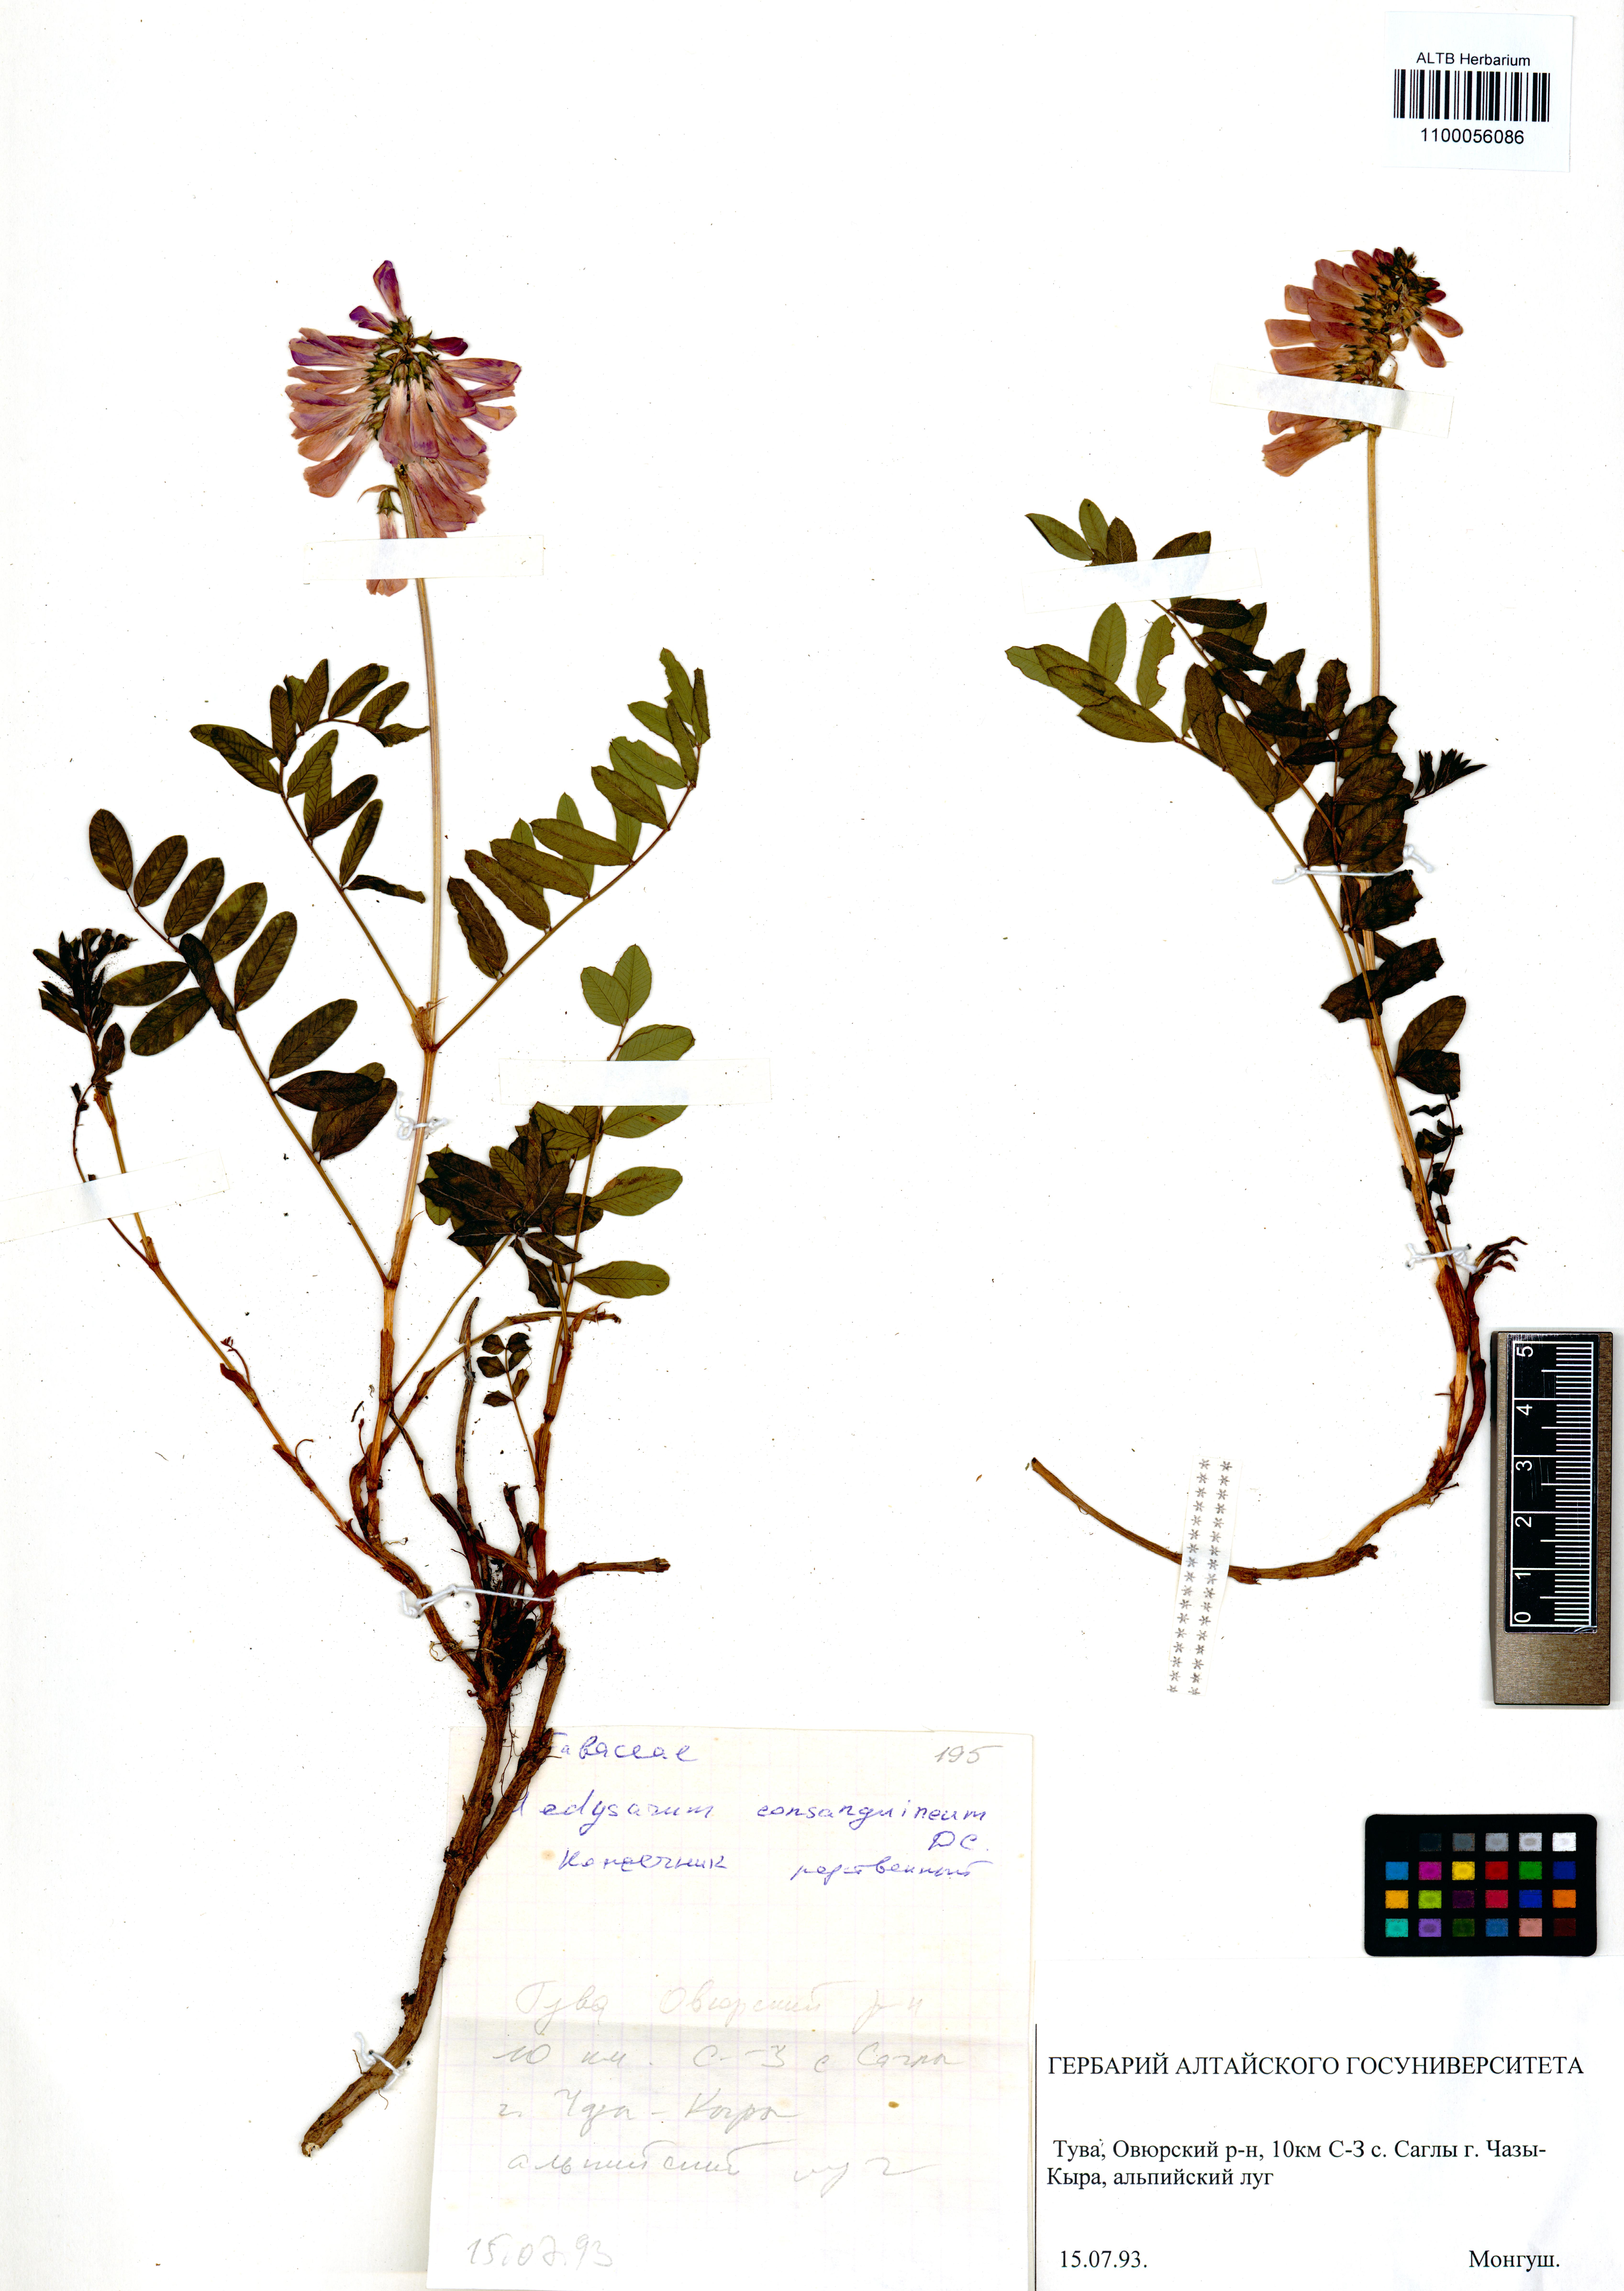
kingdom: Plantae
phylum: Tracheophyta
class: Magnoliopsida
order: Fabales
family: Fabaceae
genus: Hedysarum
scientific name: Hedysarum consanguineum
